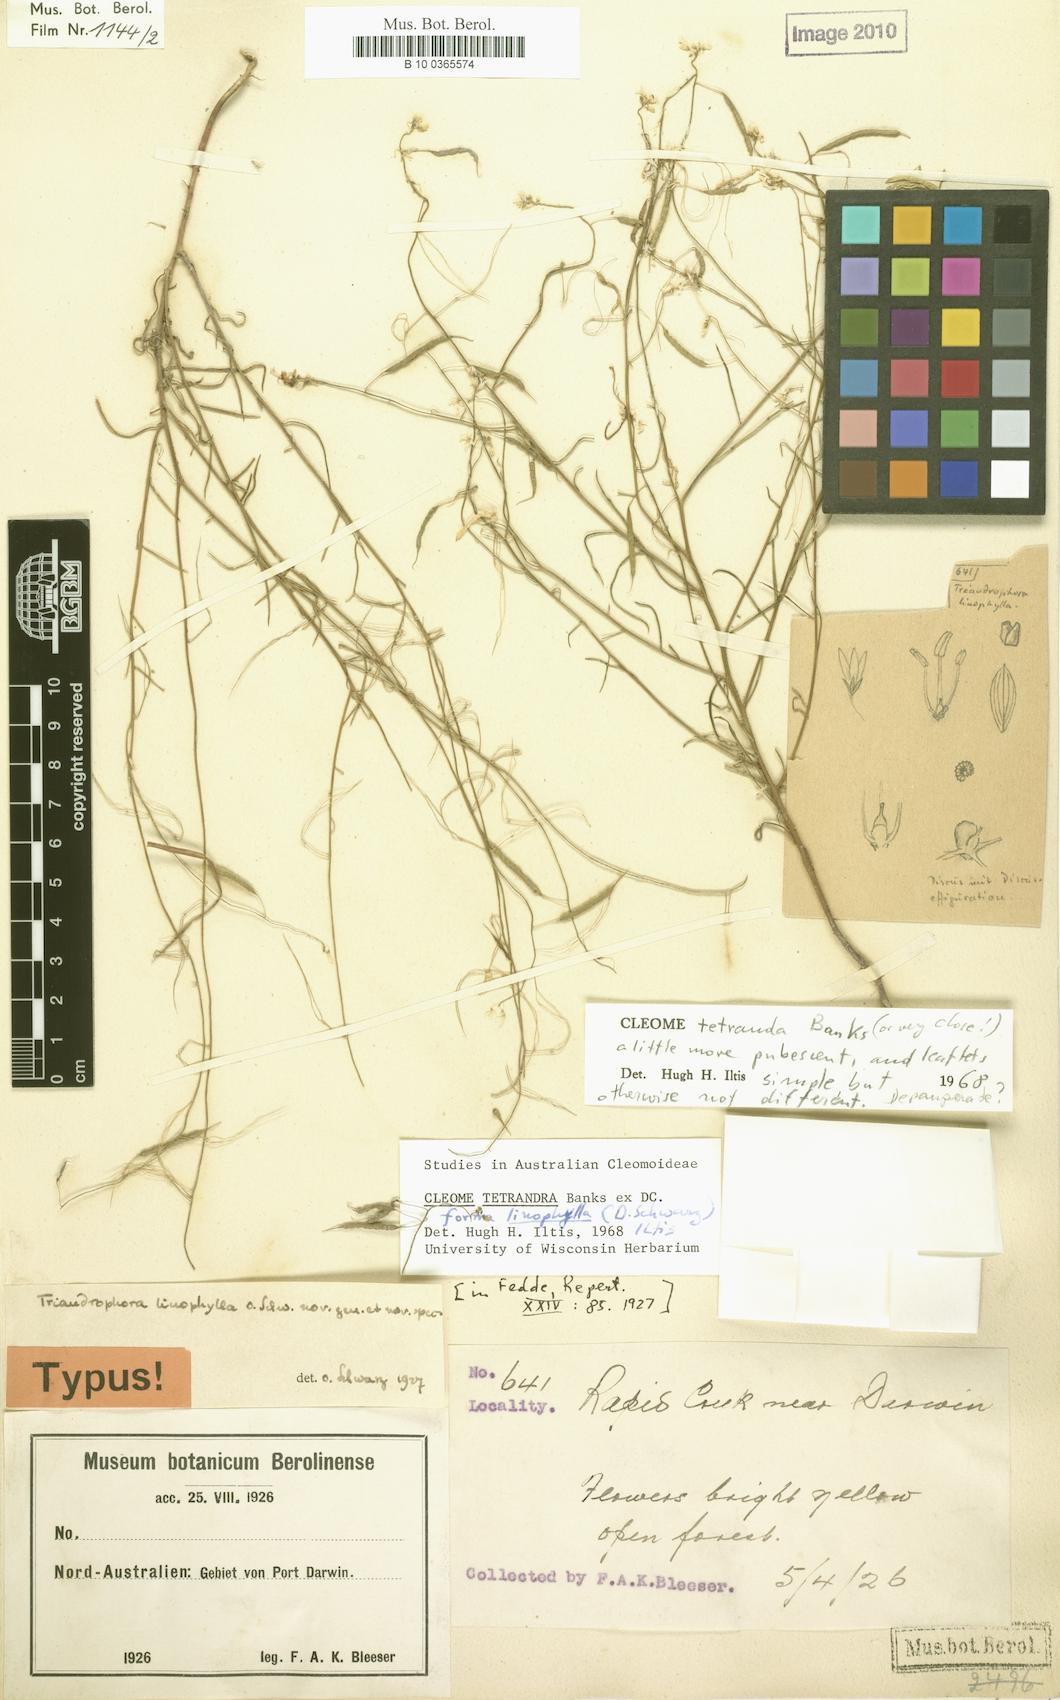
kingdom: Plantae
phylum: Tracheophyta
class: Magnoliopsida
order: Brassicales
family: Cleomaceae
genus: Arivela
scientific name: Arivela tetrandra
